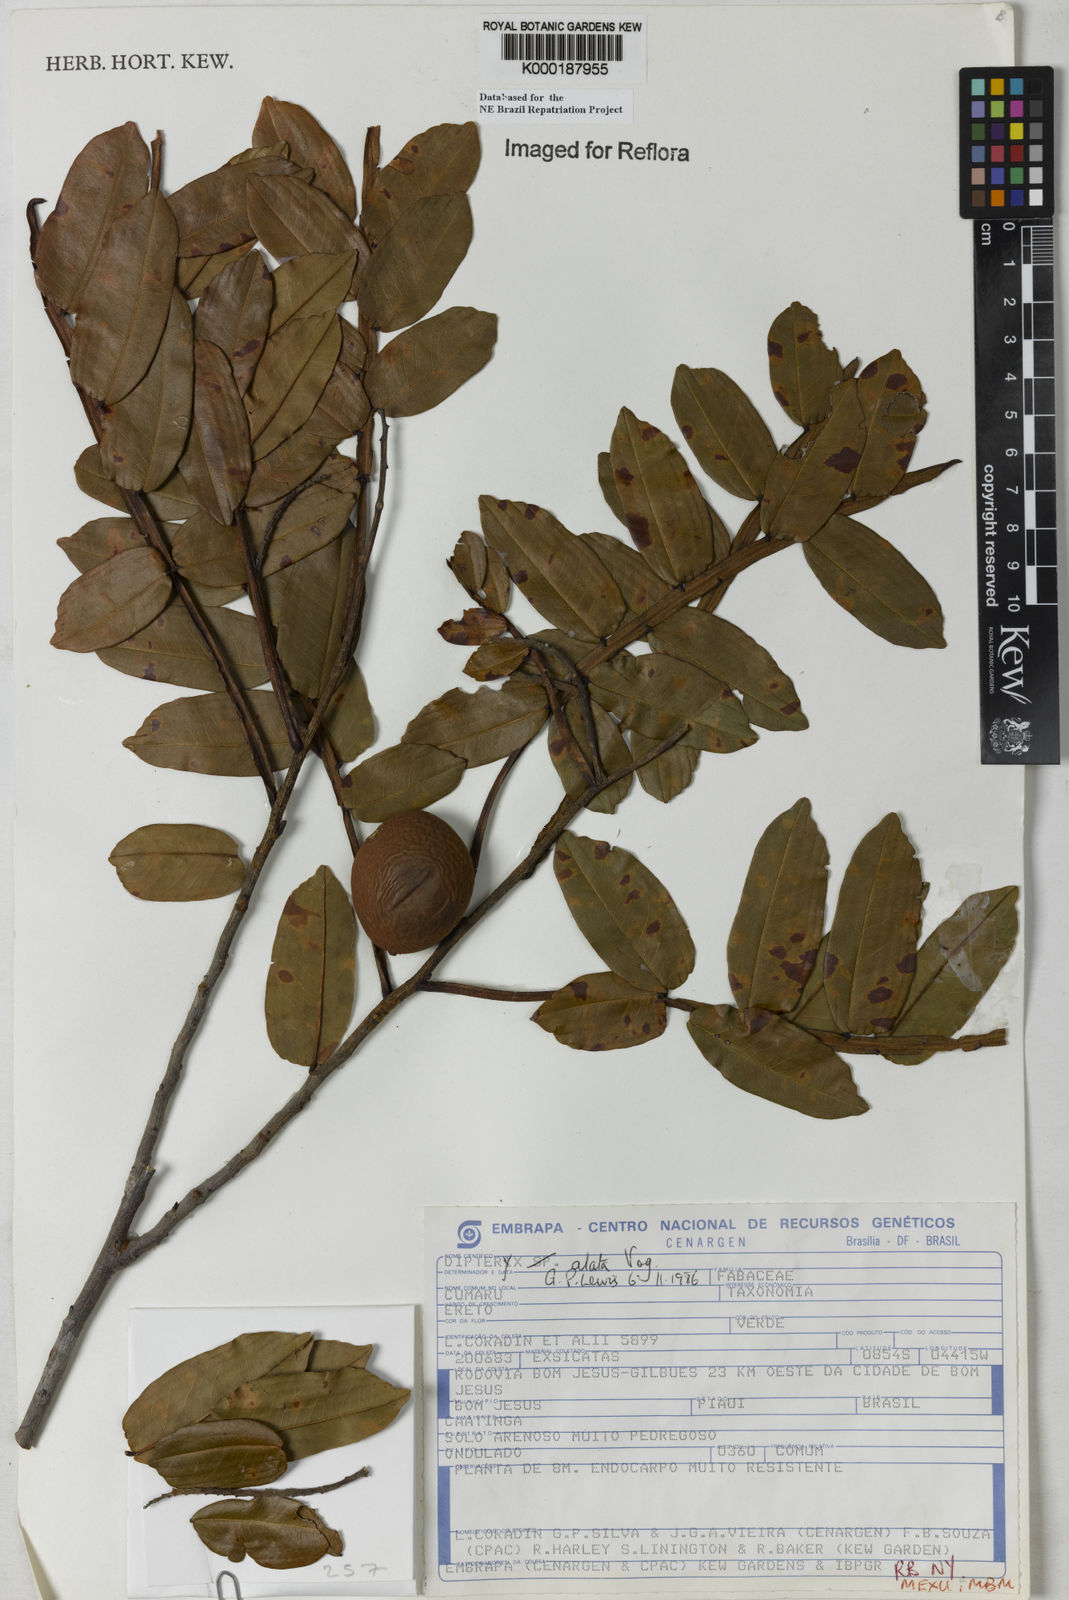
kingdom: Plantae
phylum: Tracheophyta
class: Magnoliopsida
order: Fabales
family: Fabaceae
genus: Dipteryx
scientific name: Dipteryx alata
